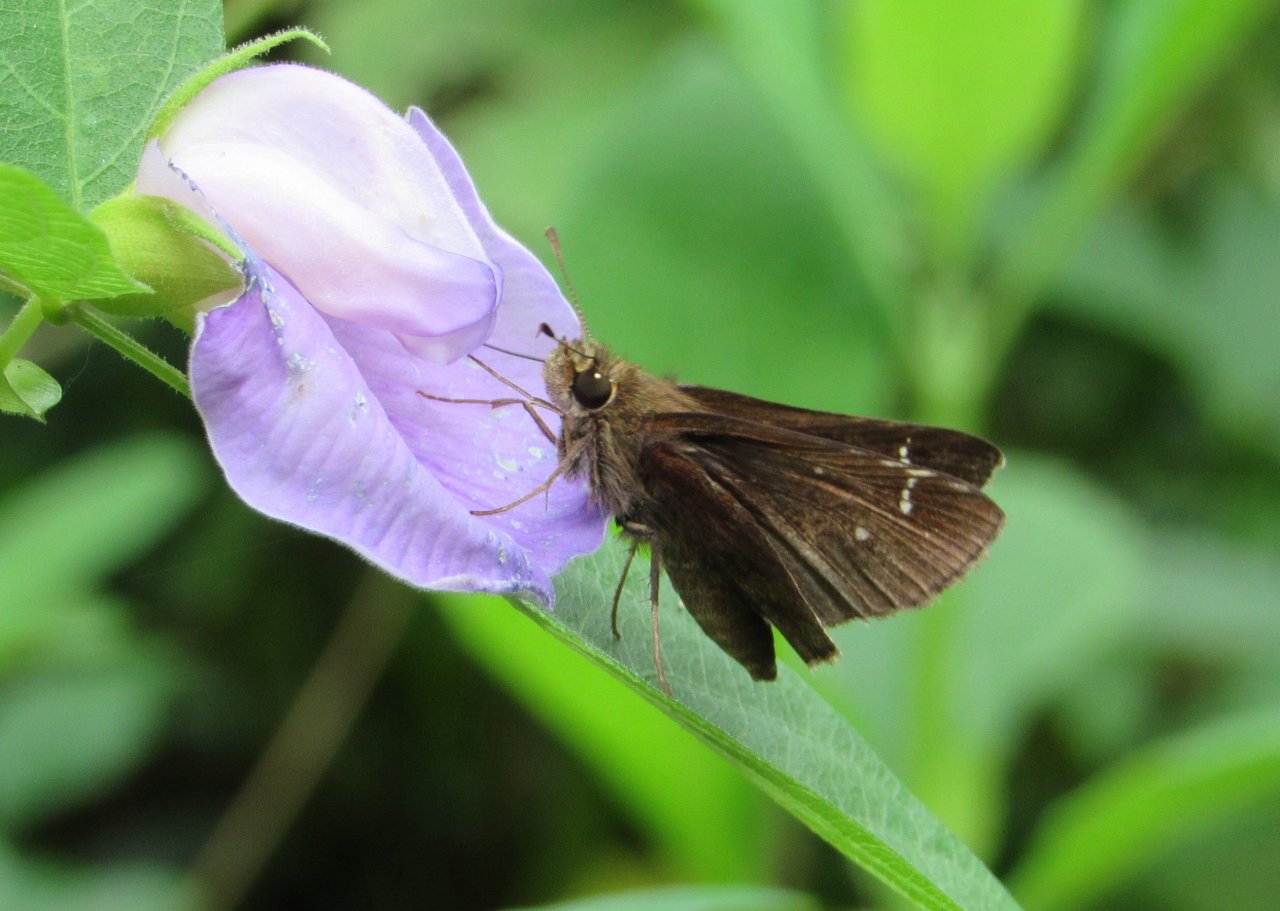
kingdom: Animalia
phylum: Arthropoda
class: Insecta
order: Lepidoptera
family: Hesperiidae
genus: Lerema
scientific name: Lerema accius
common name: Clouded Skipper
